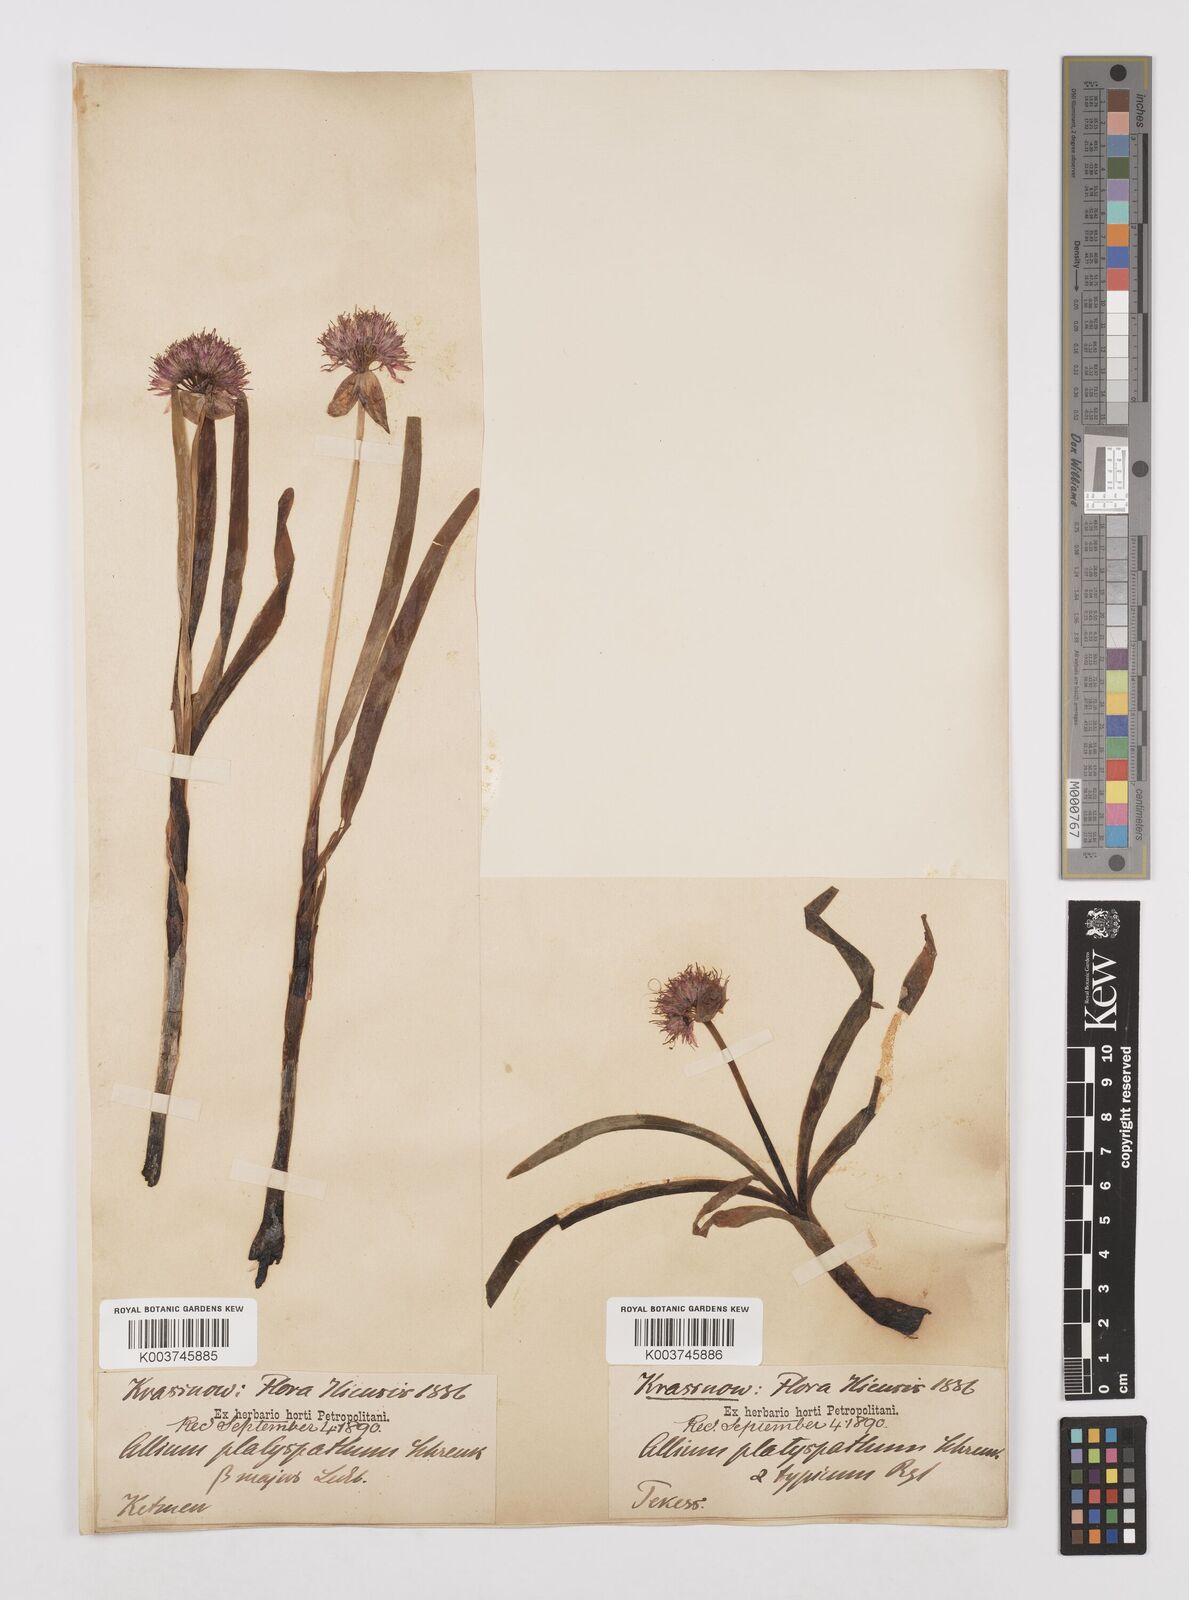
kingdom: Plantae
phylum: Tracheophyta
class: Liliopsida
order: Asparagales
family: Amaryllidaceae
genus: Allium
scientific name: Allium platyspathum
